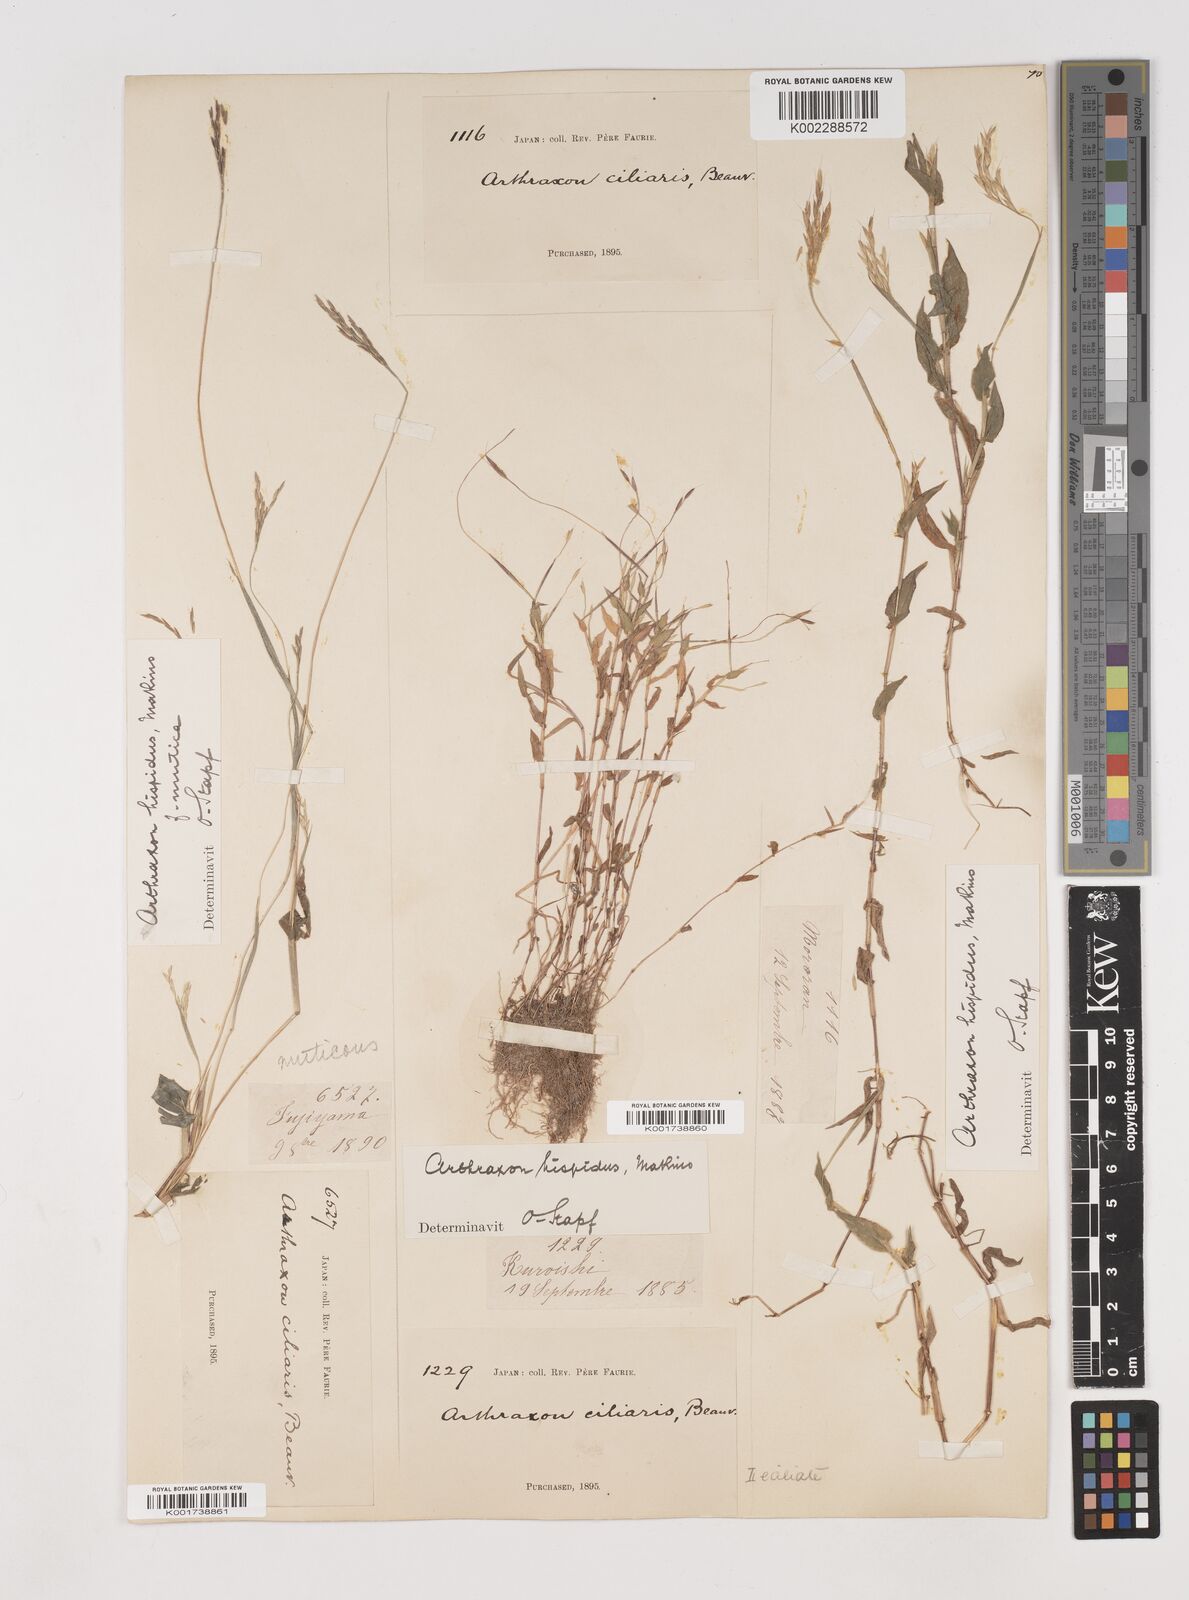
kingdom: Plantae
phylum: Tracheophyta
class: Liliopsida
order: Poales
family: Poaceae
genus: Arthraxon
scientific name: Arthraxon hispidus
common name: Small carpgrass
